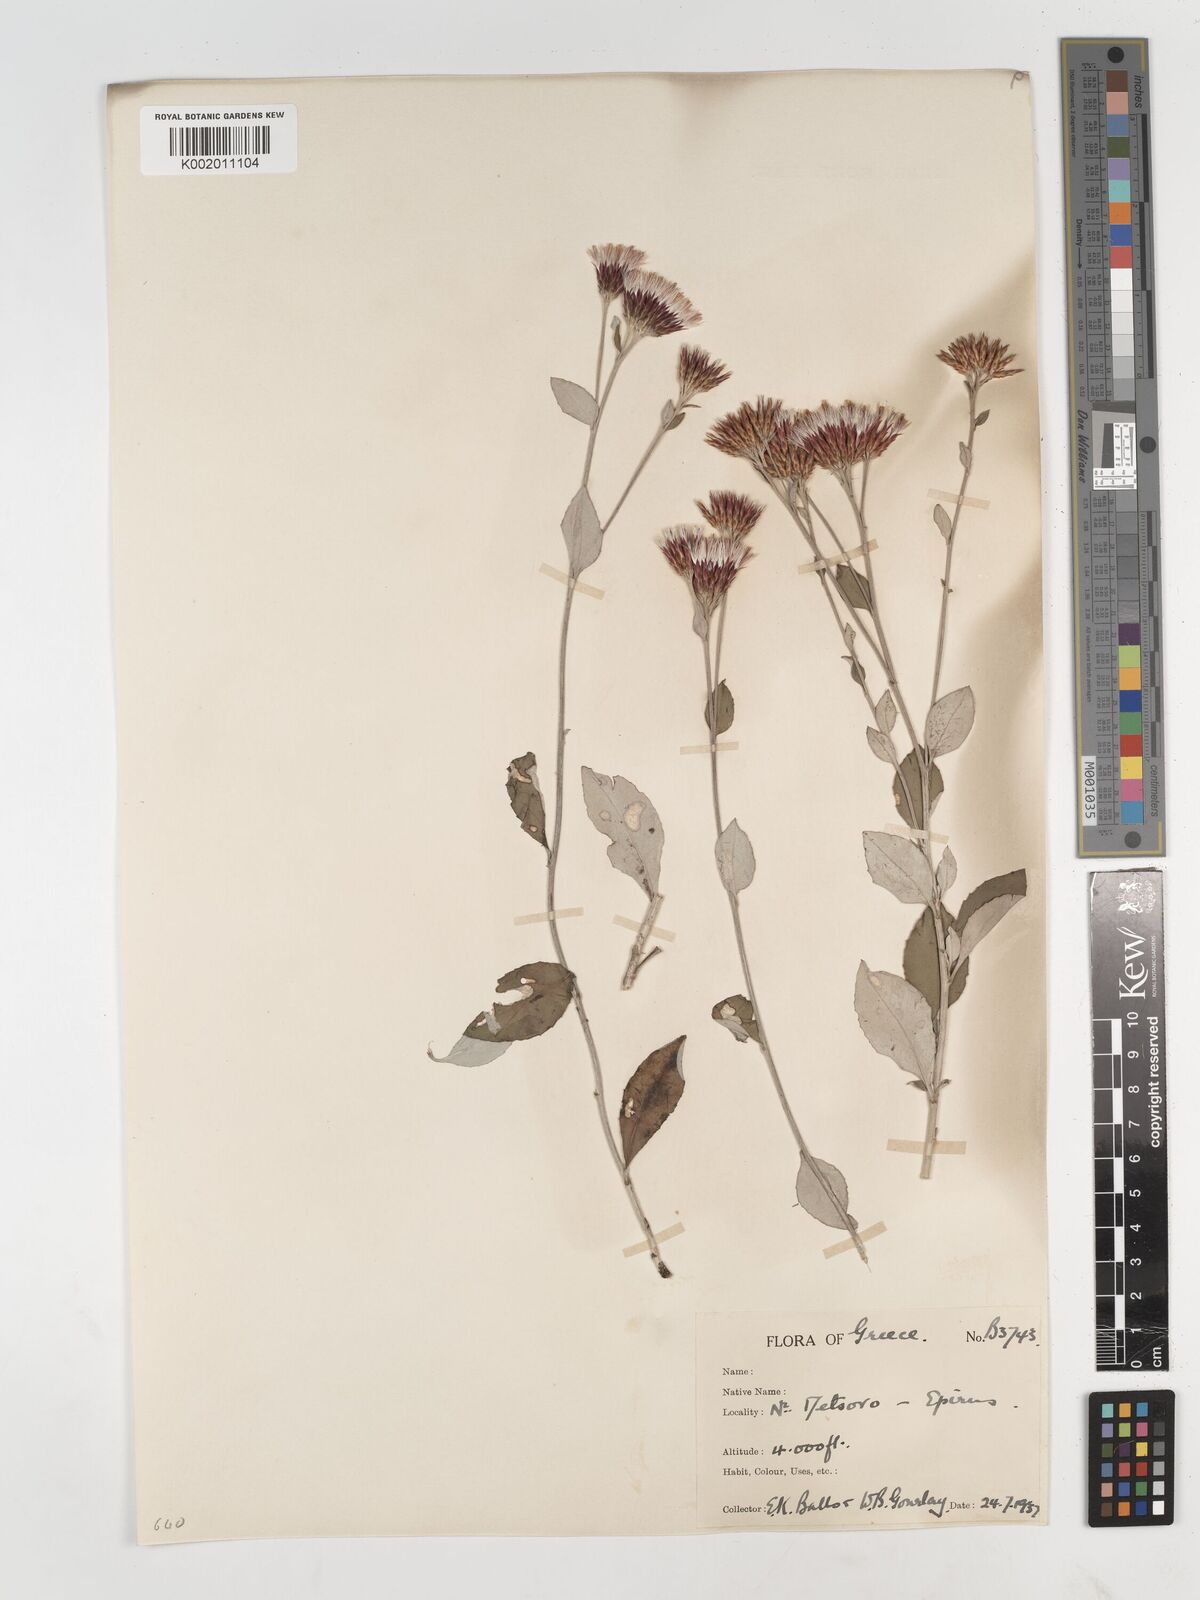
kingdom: Plantae
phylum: Tracheophyta
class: Magnoliopsida
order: Asterales
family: Asteraceae
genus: Staehelina
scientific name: Staehelina uniflosculosa
